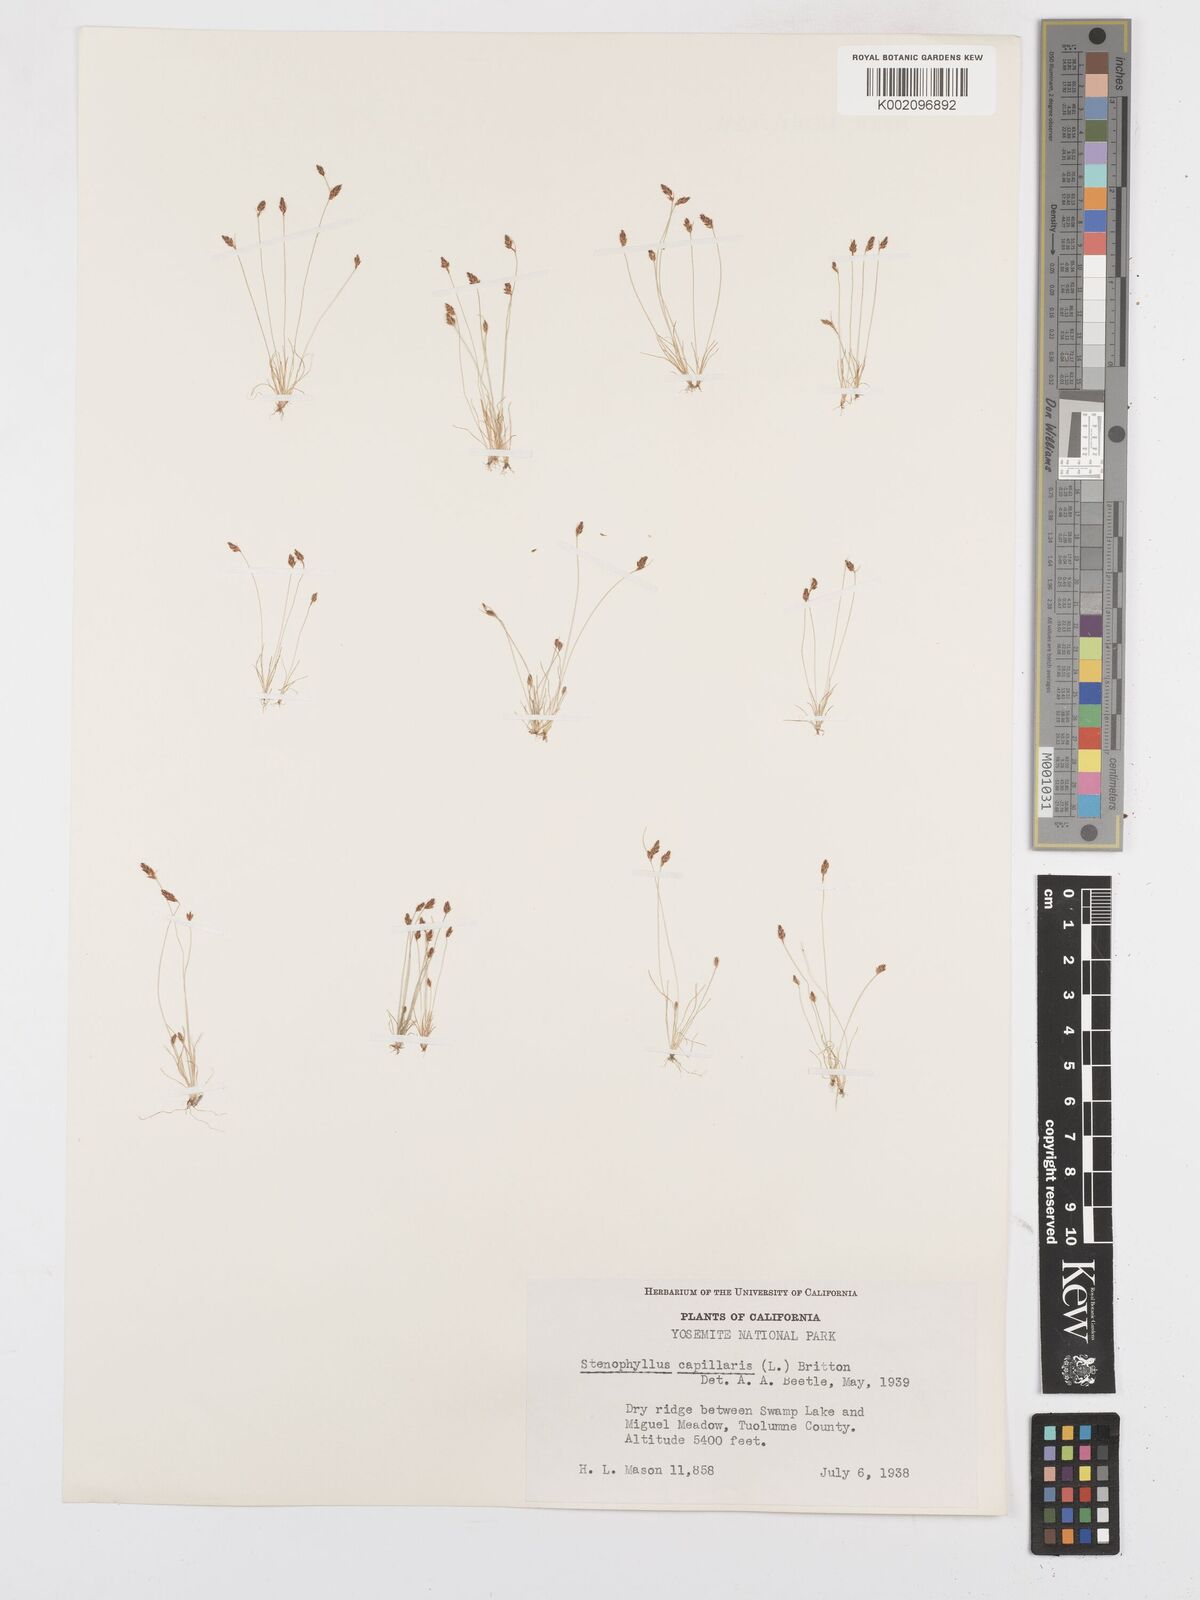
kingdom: Plantae
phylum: Tracheophyta
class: Liliopsida
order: Poales
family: Cyperaceae
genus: Bulbostylis
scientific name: Bulbostylis capillaris
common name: Densetuft hairsedge
